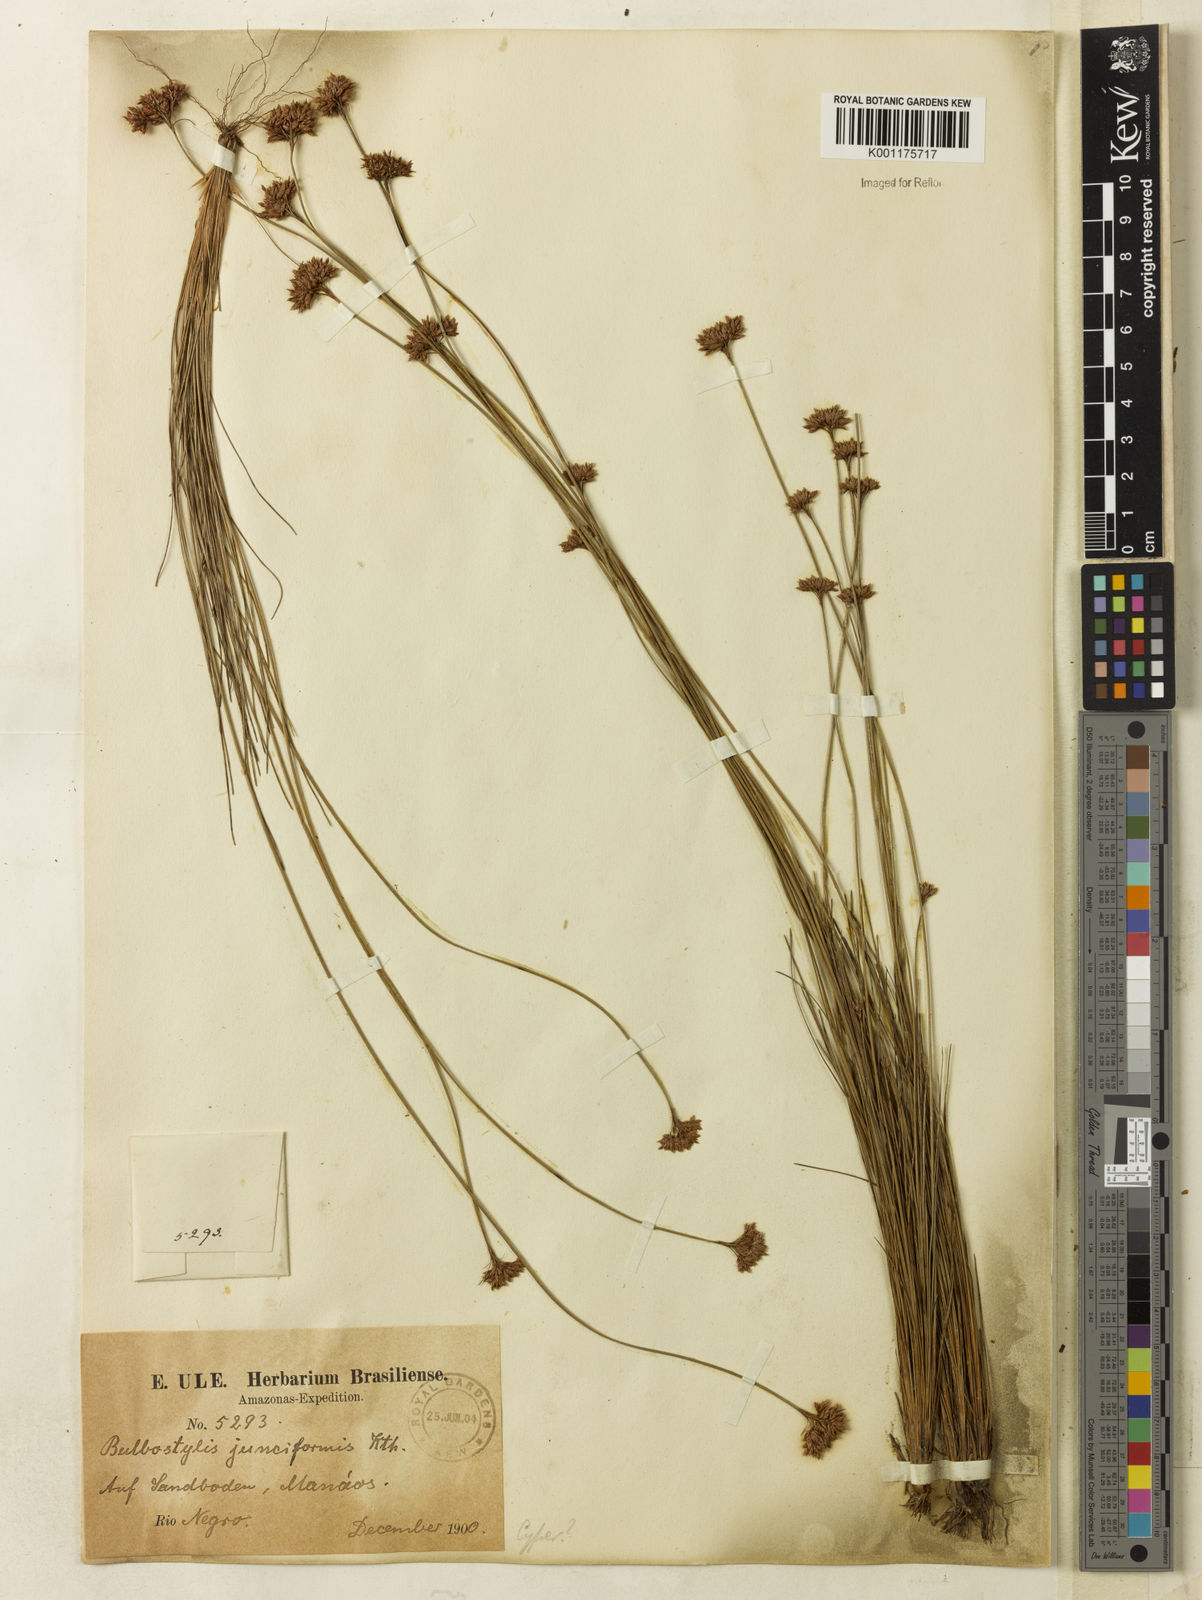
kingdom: Plantae
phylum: Tracheophyta
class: Liliopsida
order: Poales
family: Cyperaceae
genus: Bulbostylis
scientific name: Bulbostylis junciformis
